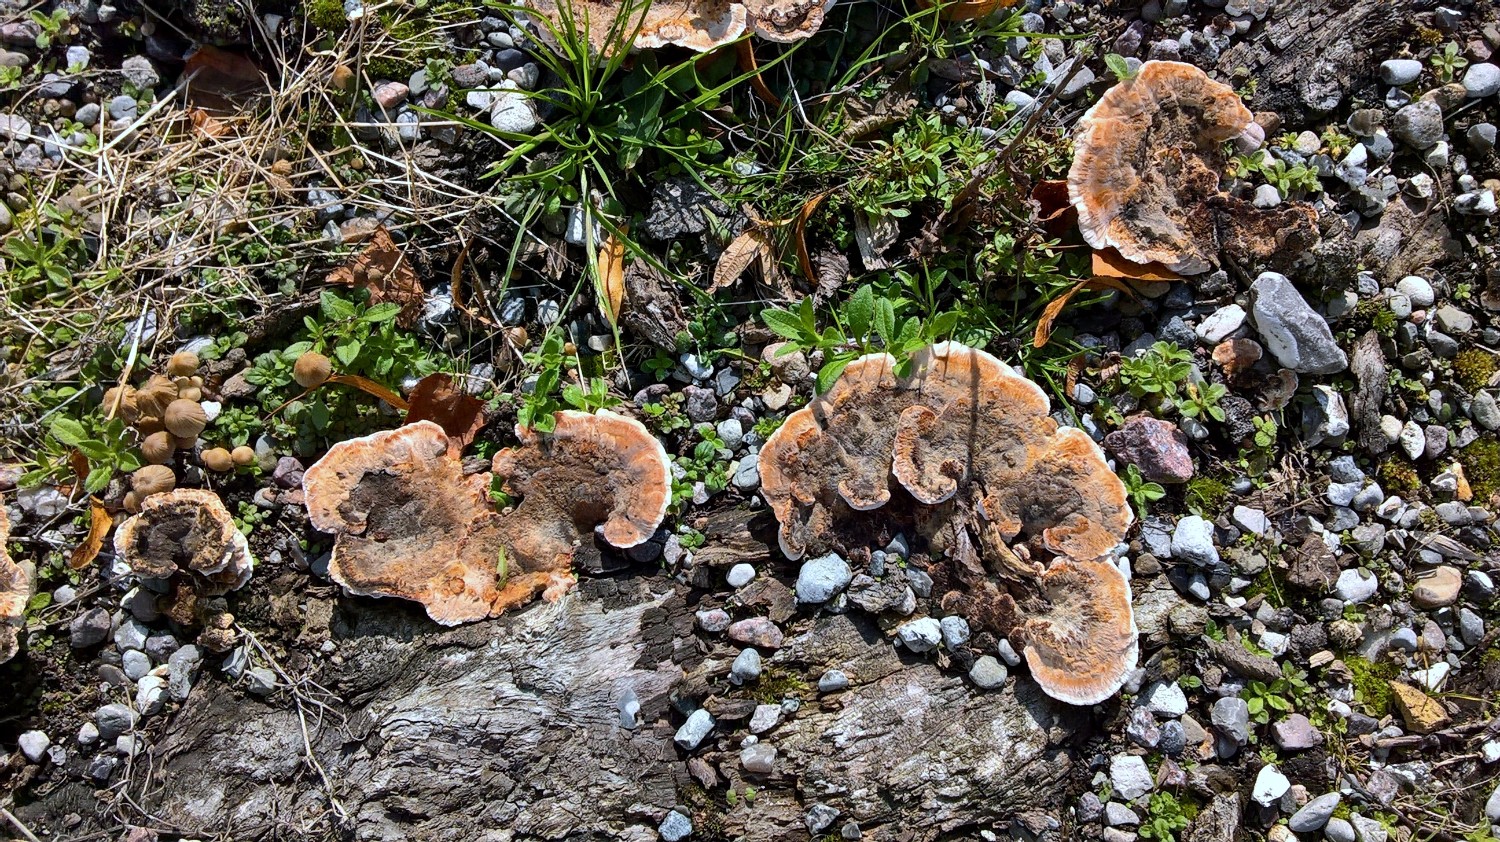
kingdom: Fungi
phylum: Basidiomycota
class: Agaricomycetes
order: Polyporales
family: Podoscyphaceae
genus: Abortiporus
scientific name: Abortiporus biennis
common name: rødmende pjalteporesvamp
